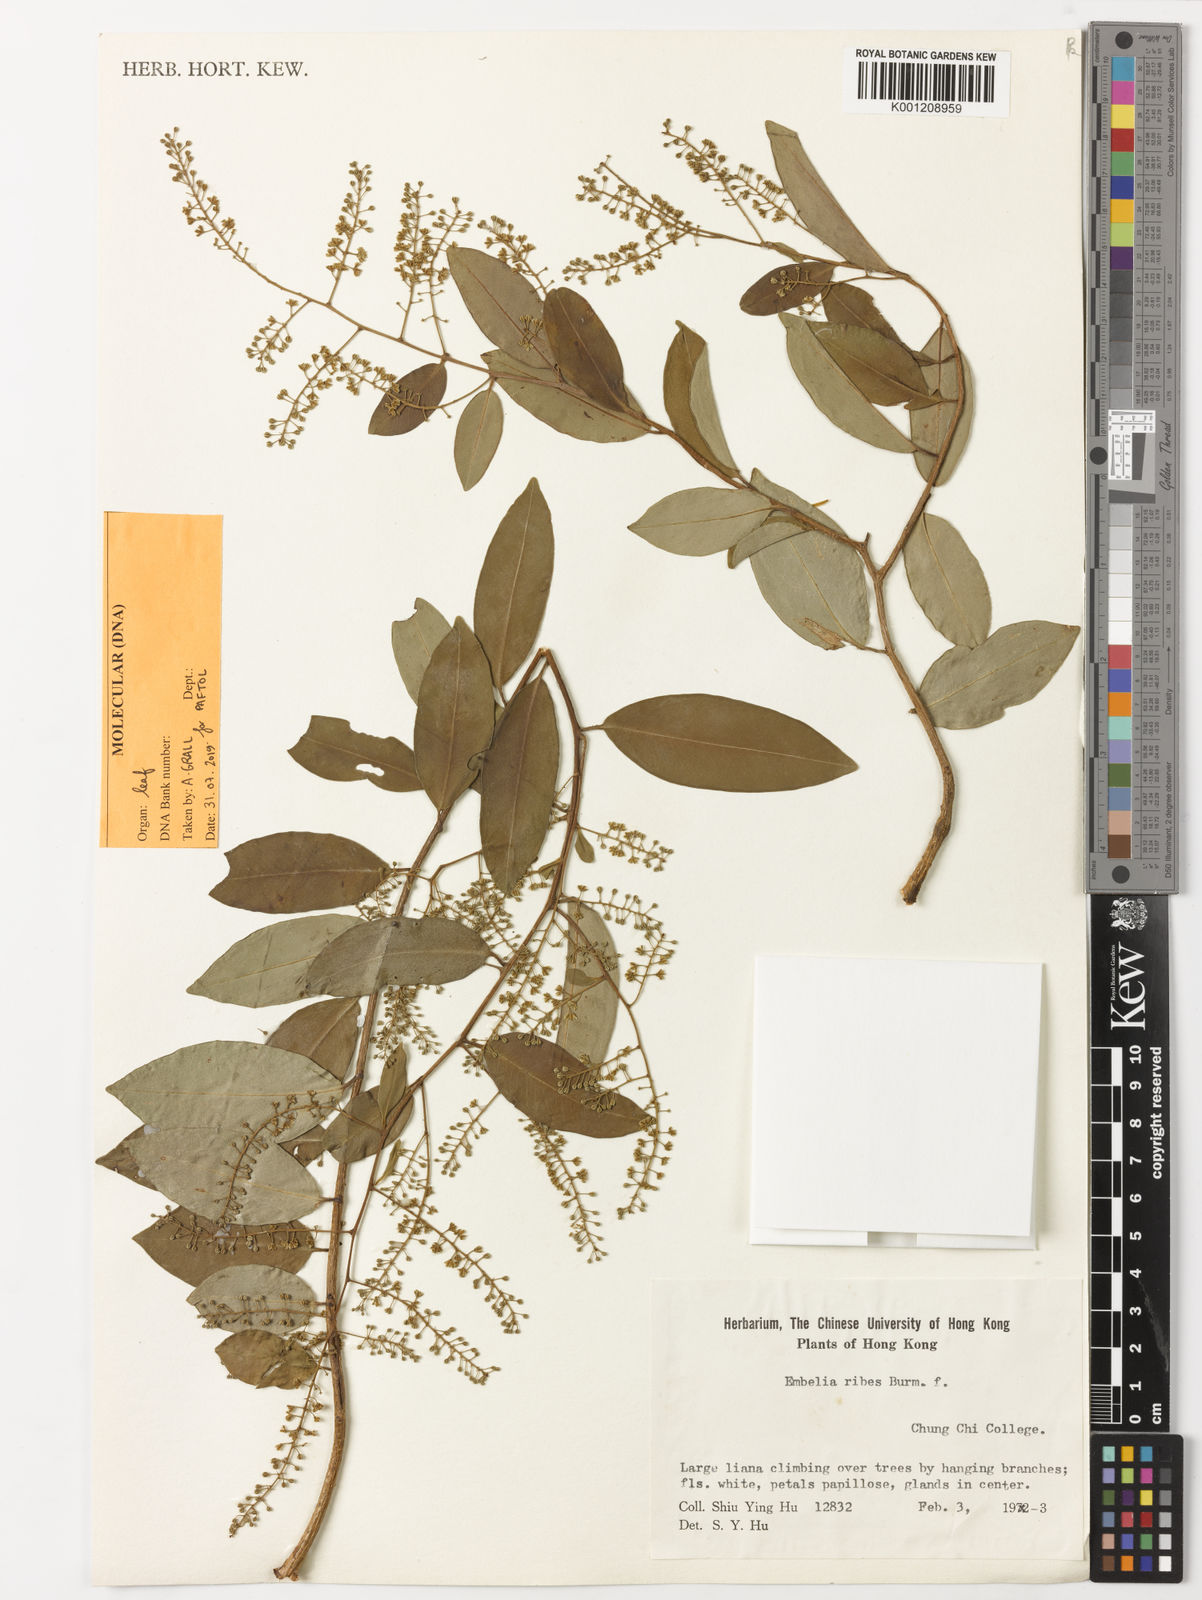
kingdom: Plantae
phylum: Tracheophyta
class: Magnoliopsida
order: Ericales
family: Primulaceae
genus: Embelia
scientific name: Embelia ribes
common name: Vidanga
